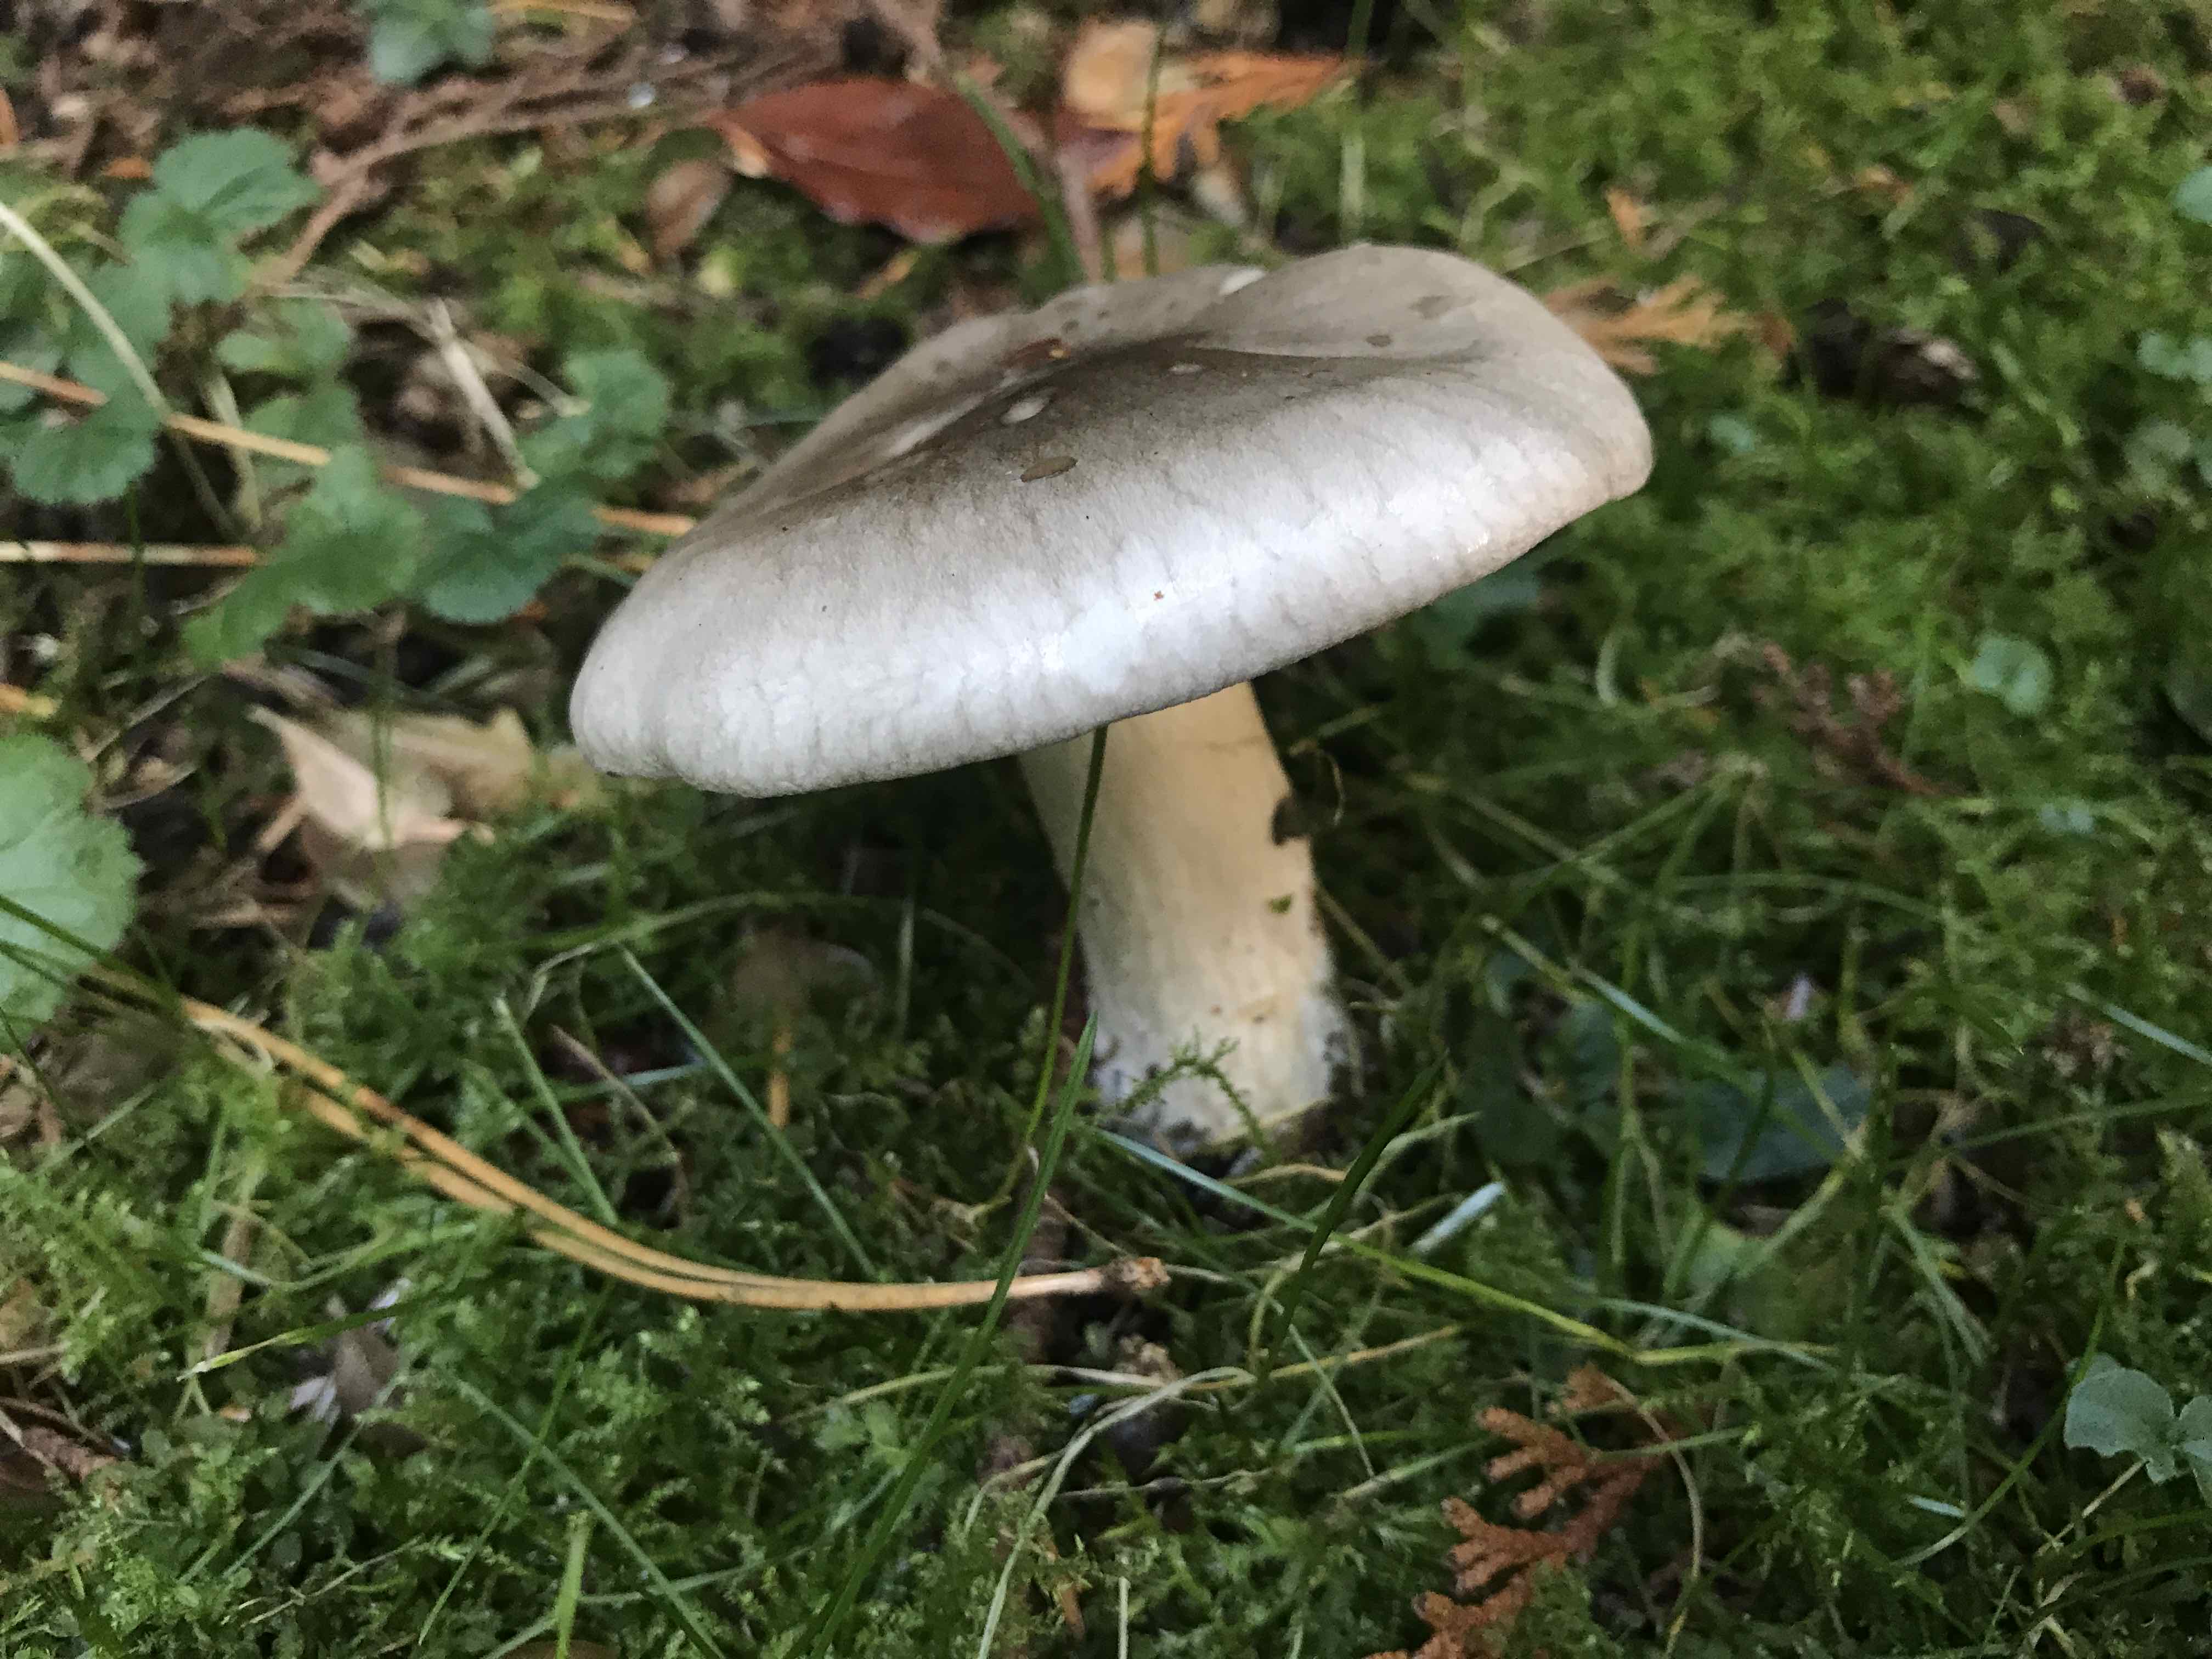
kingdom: Fungi
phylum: Basidiomycota
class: Agaricomycetes
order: Agaricales
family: Tricholomataceae
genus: Clitocybe
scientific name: Clitocybe nebularis
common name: tåge-tragthat
